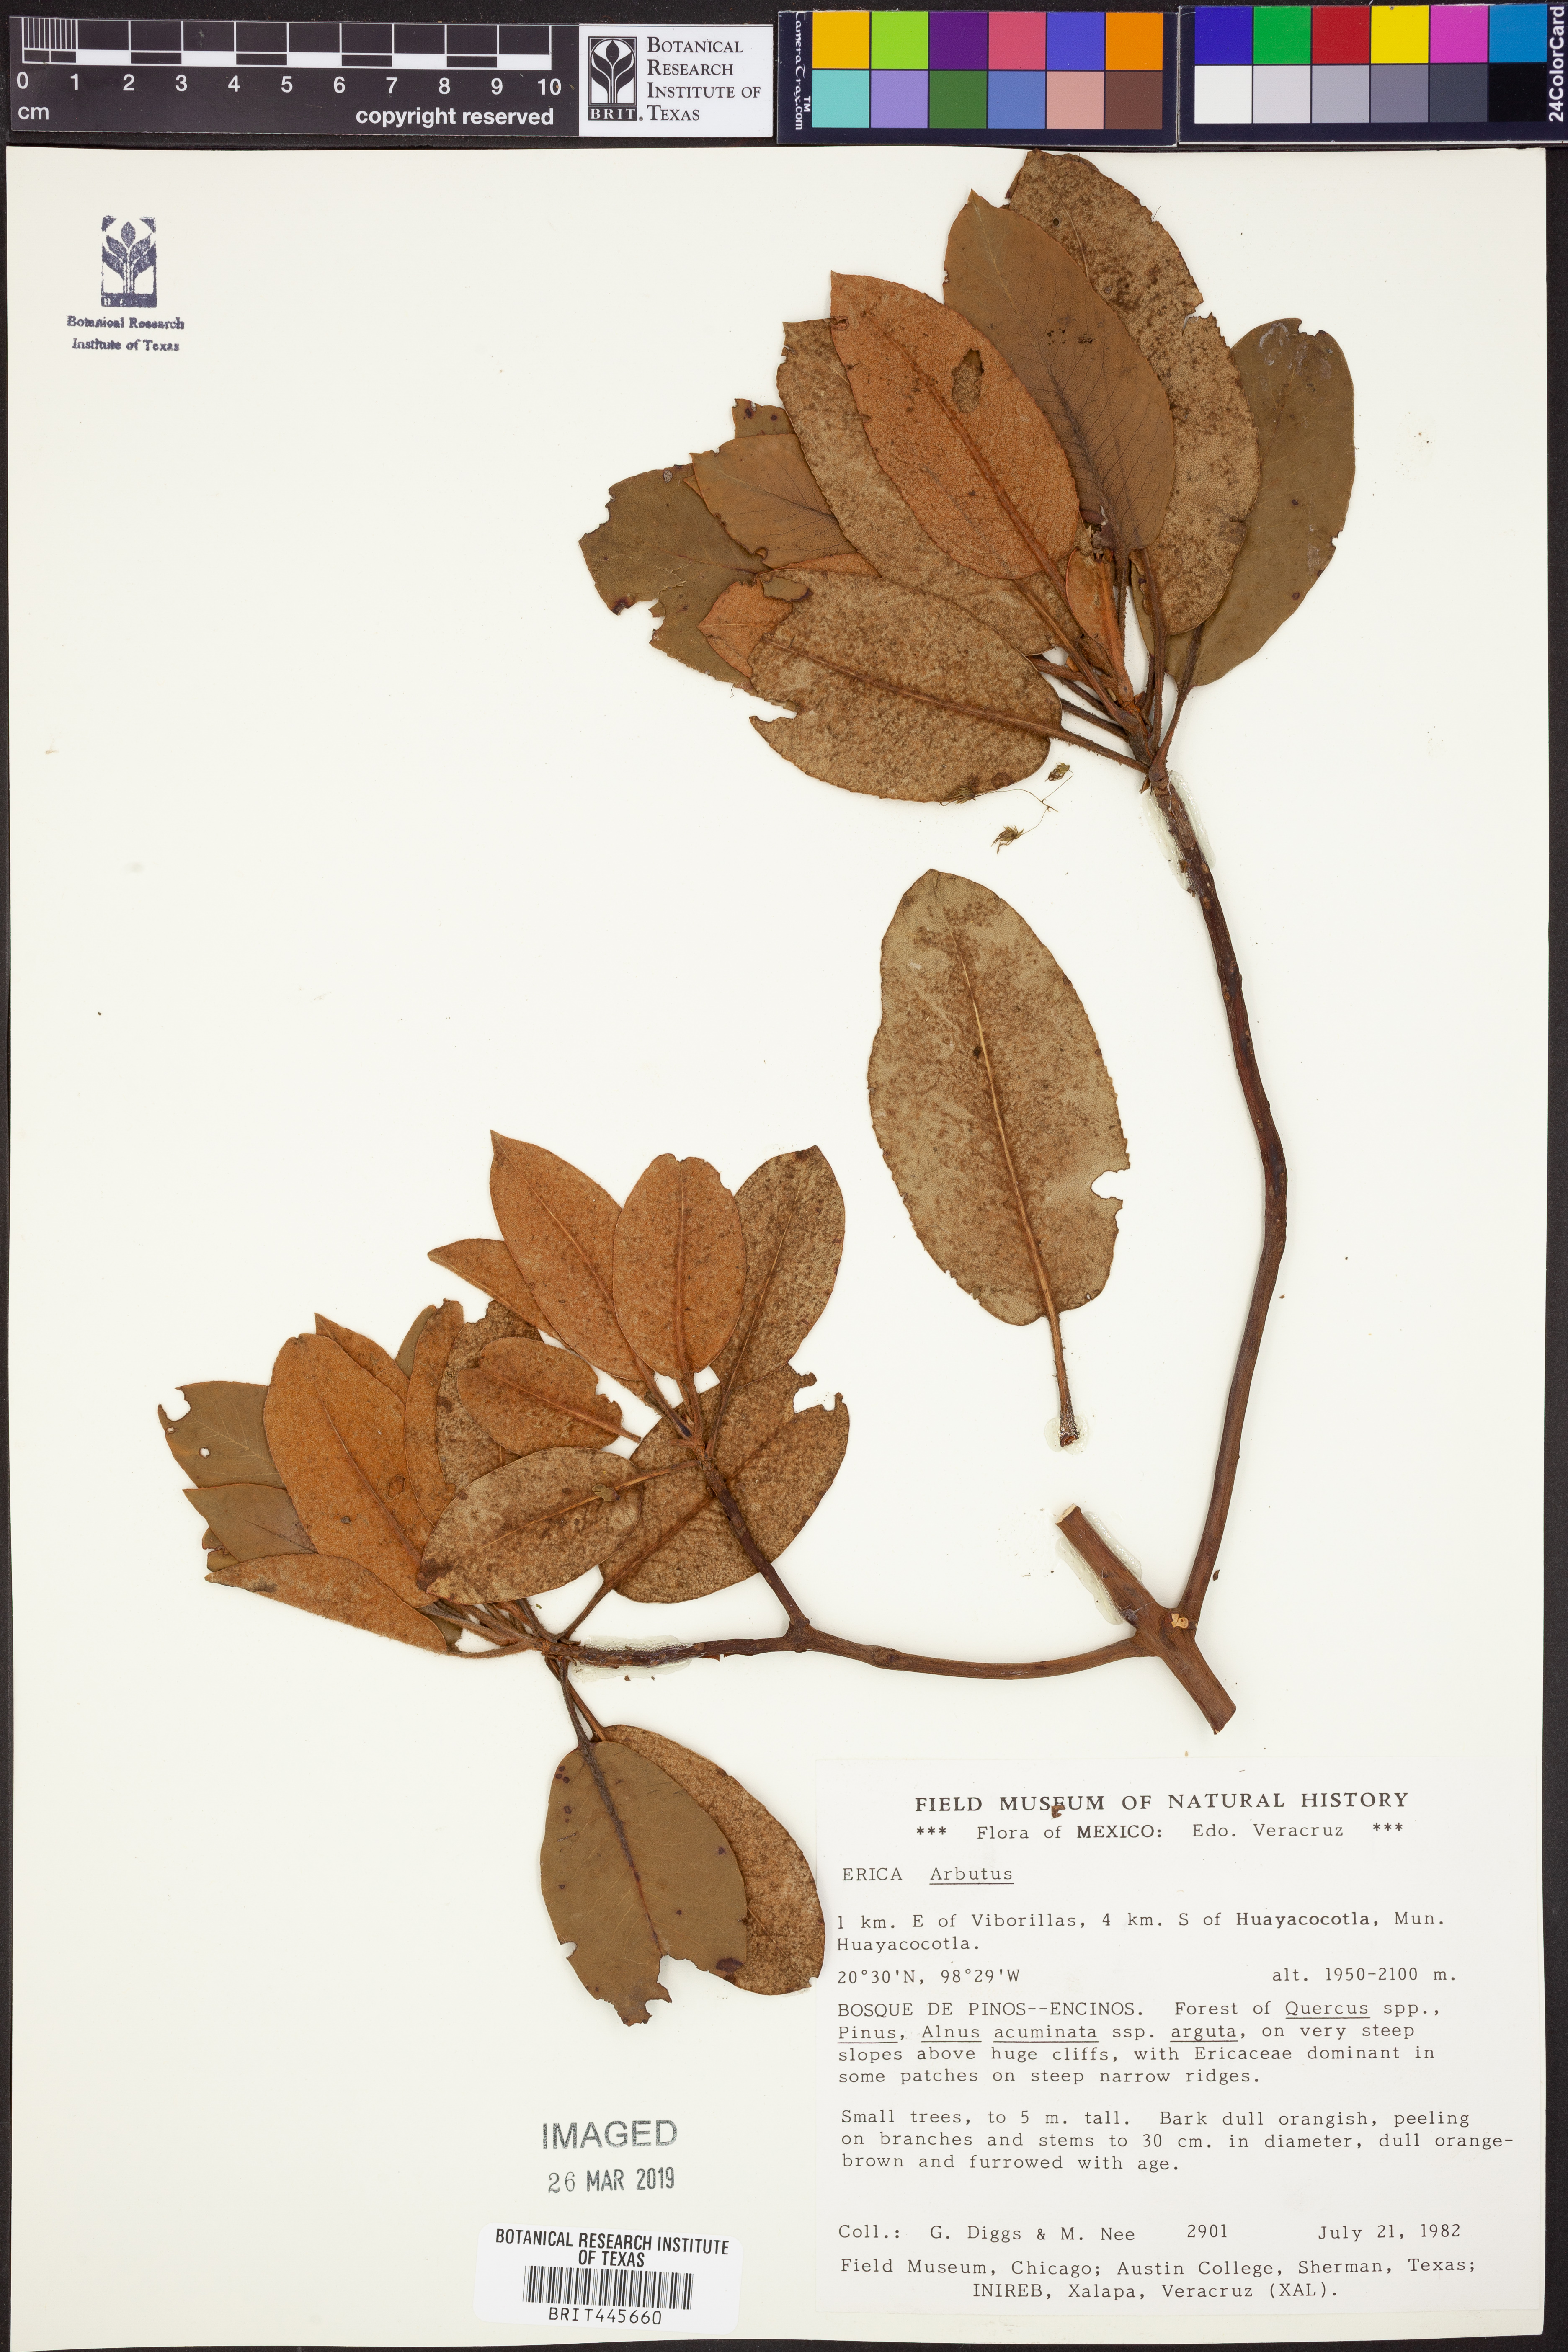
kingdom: Plantae
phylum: Tracheophyta
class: Magnoliopsida
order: Ericales
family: Ericaceae
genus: Arbutus
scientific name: Arbutus
